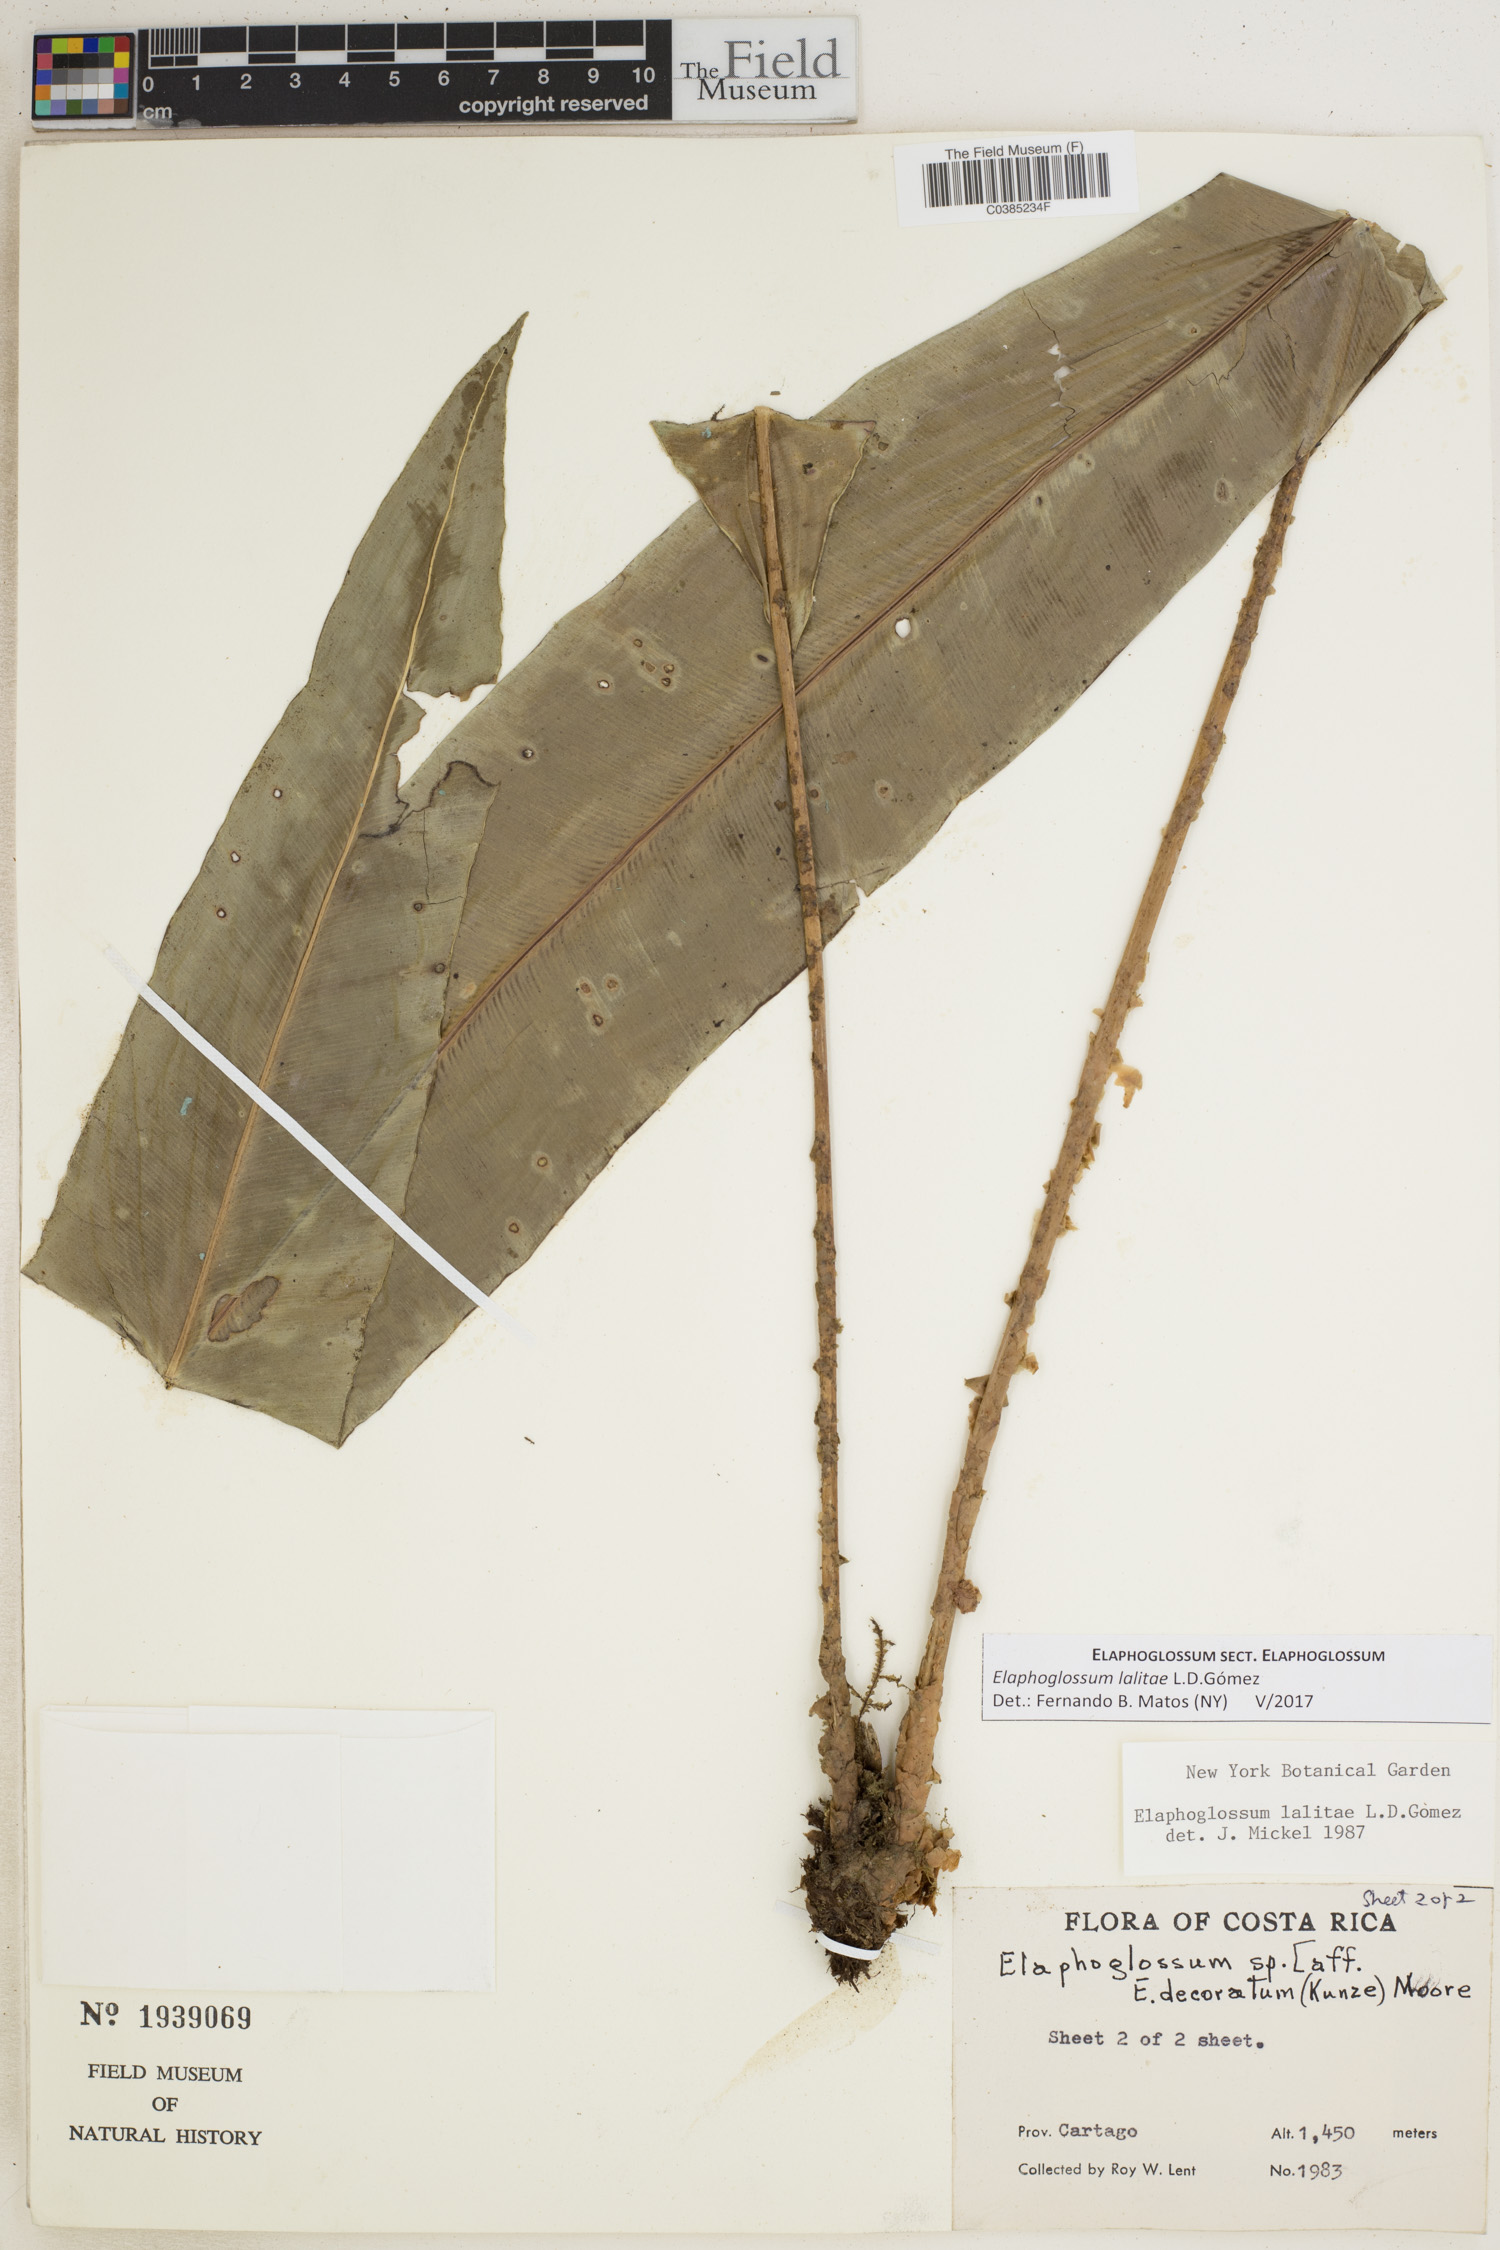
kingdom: Plantae
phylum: Tracheophyta
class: Polypodiopsida
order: Polypodiales
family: Dryopteridaceae
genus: Elaphoglossum
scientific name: Elaphoglossum lalitae
